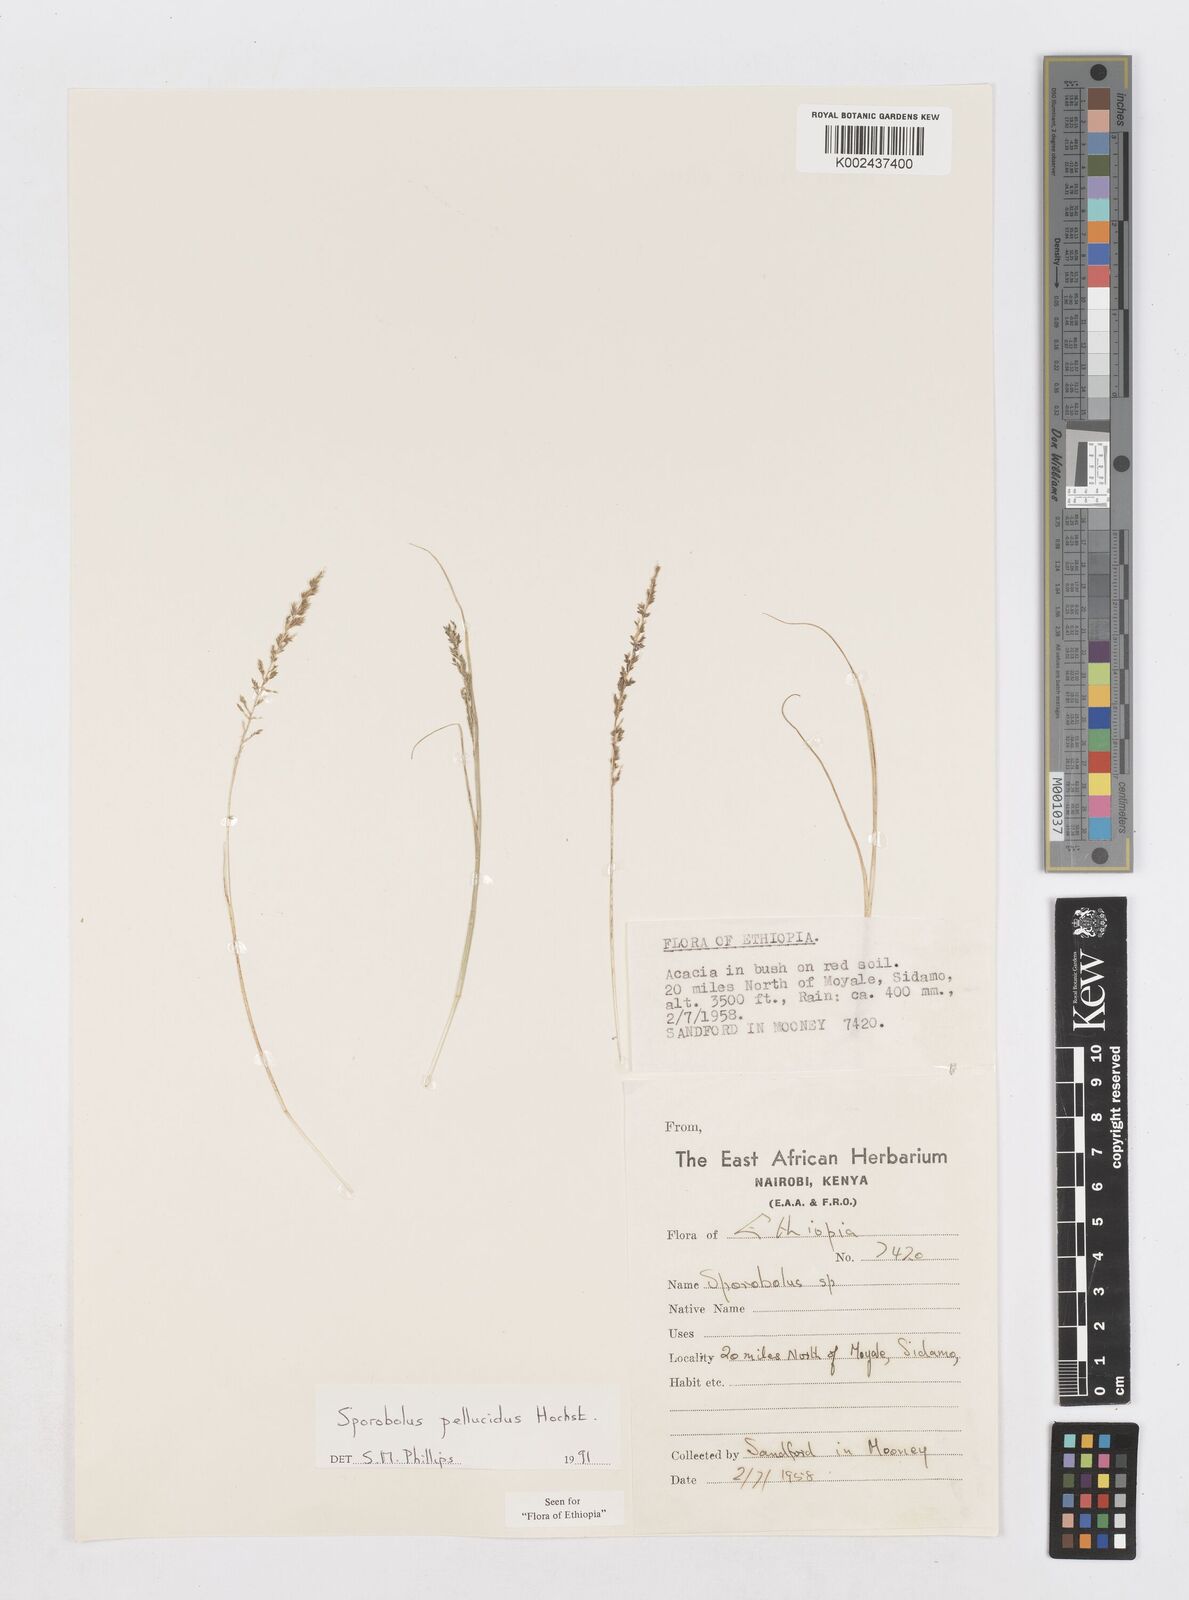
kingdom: Plantae
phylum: Tracheophyta
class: Liliopsida
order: Poales
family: Poaceae
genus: Sporobolus
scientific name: Sporobolus pellucidus
